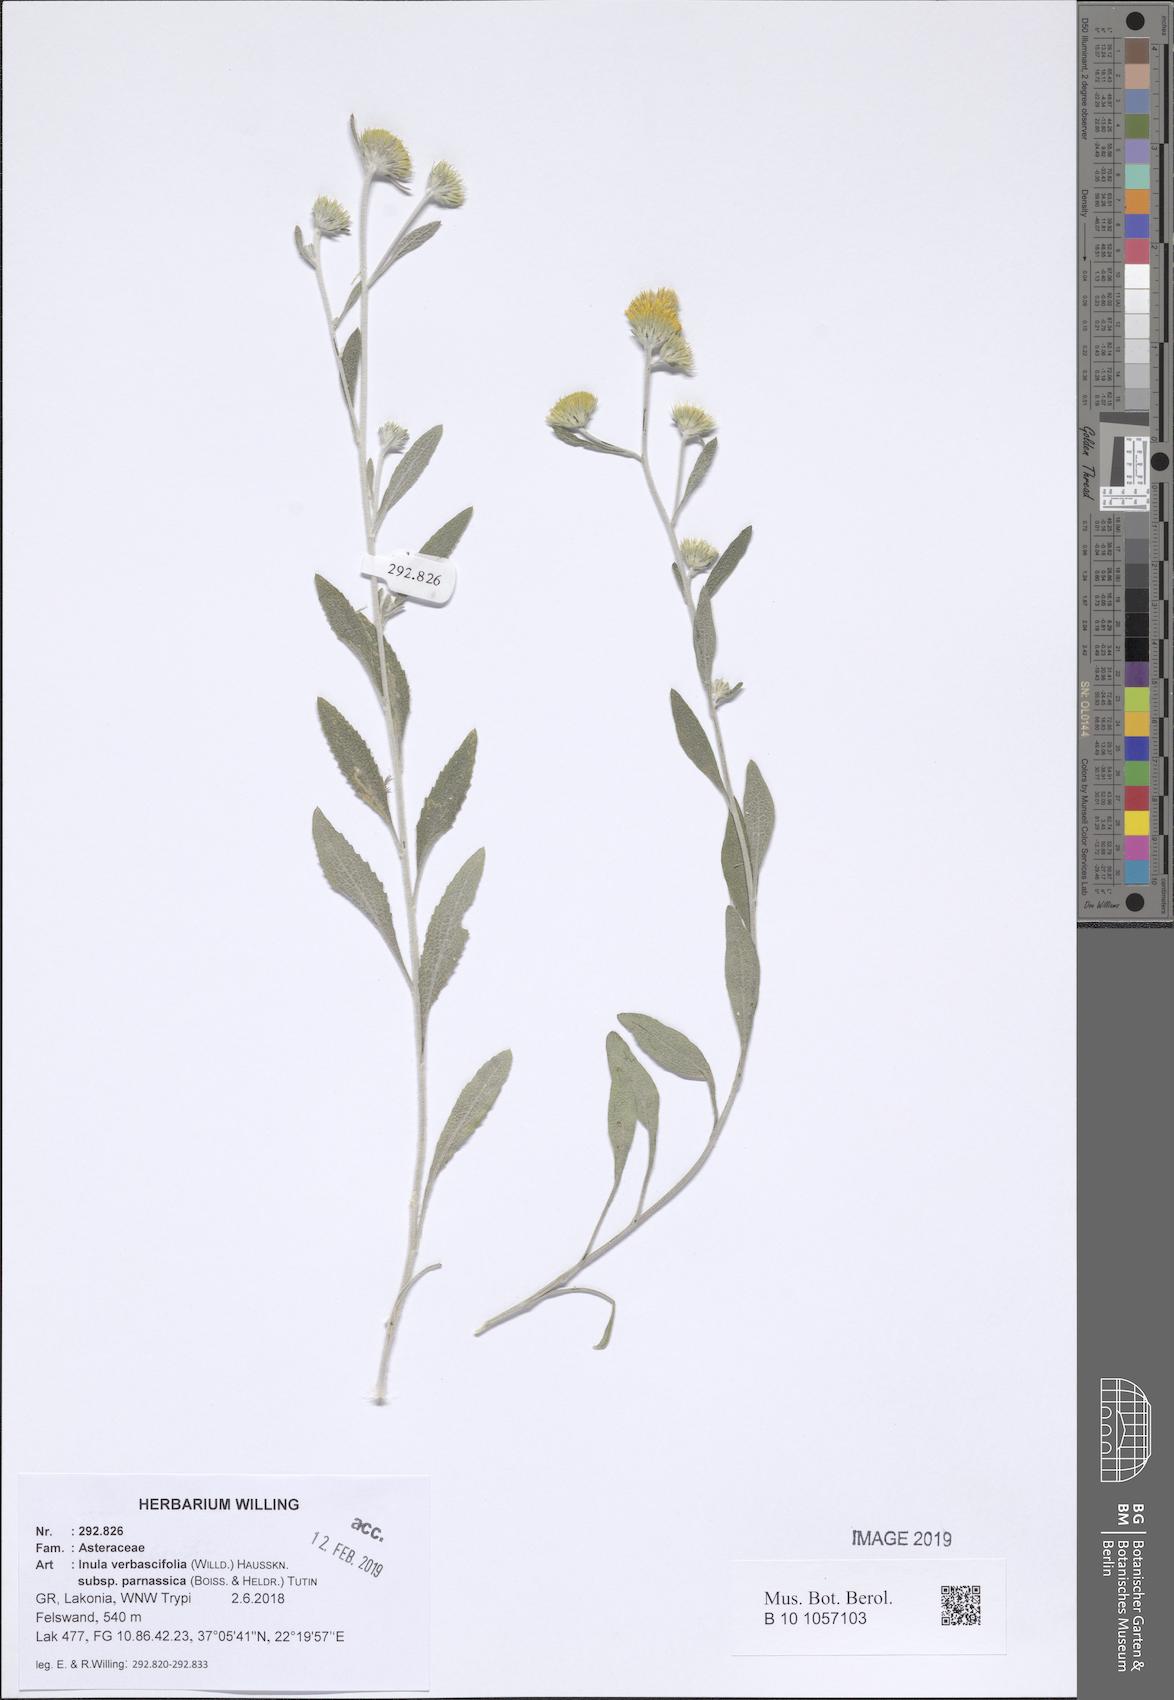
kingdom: Plantae
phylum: Tracheophyta
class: Magnoliopsida
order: Asterales
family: Asteraceae
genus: Pentanema
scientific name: Pentanema verbascifolium
